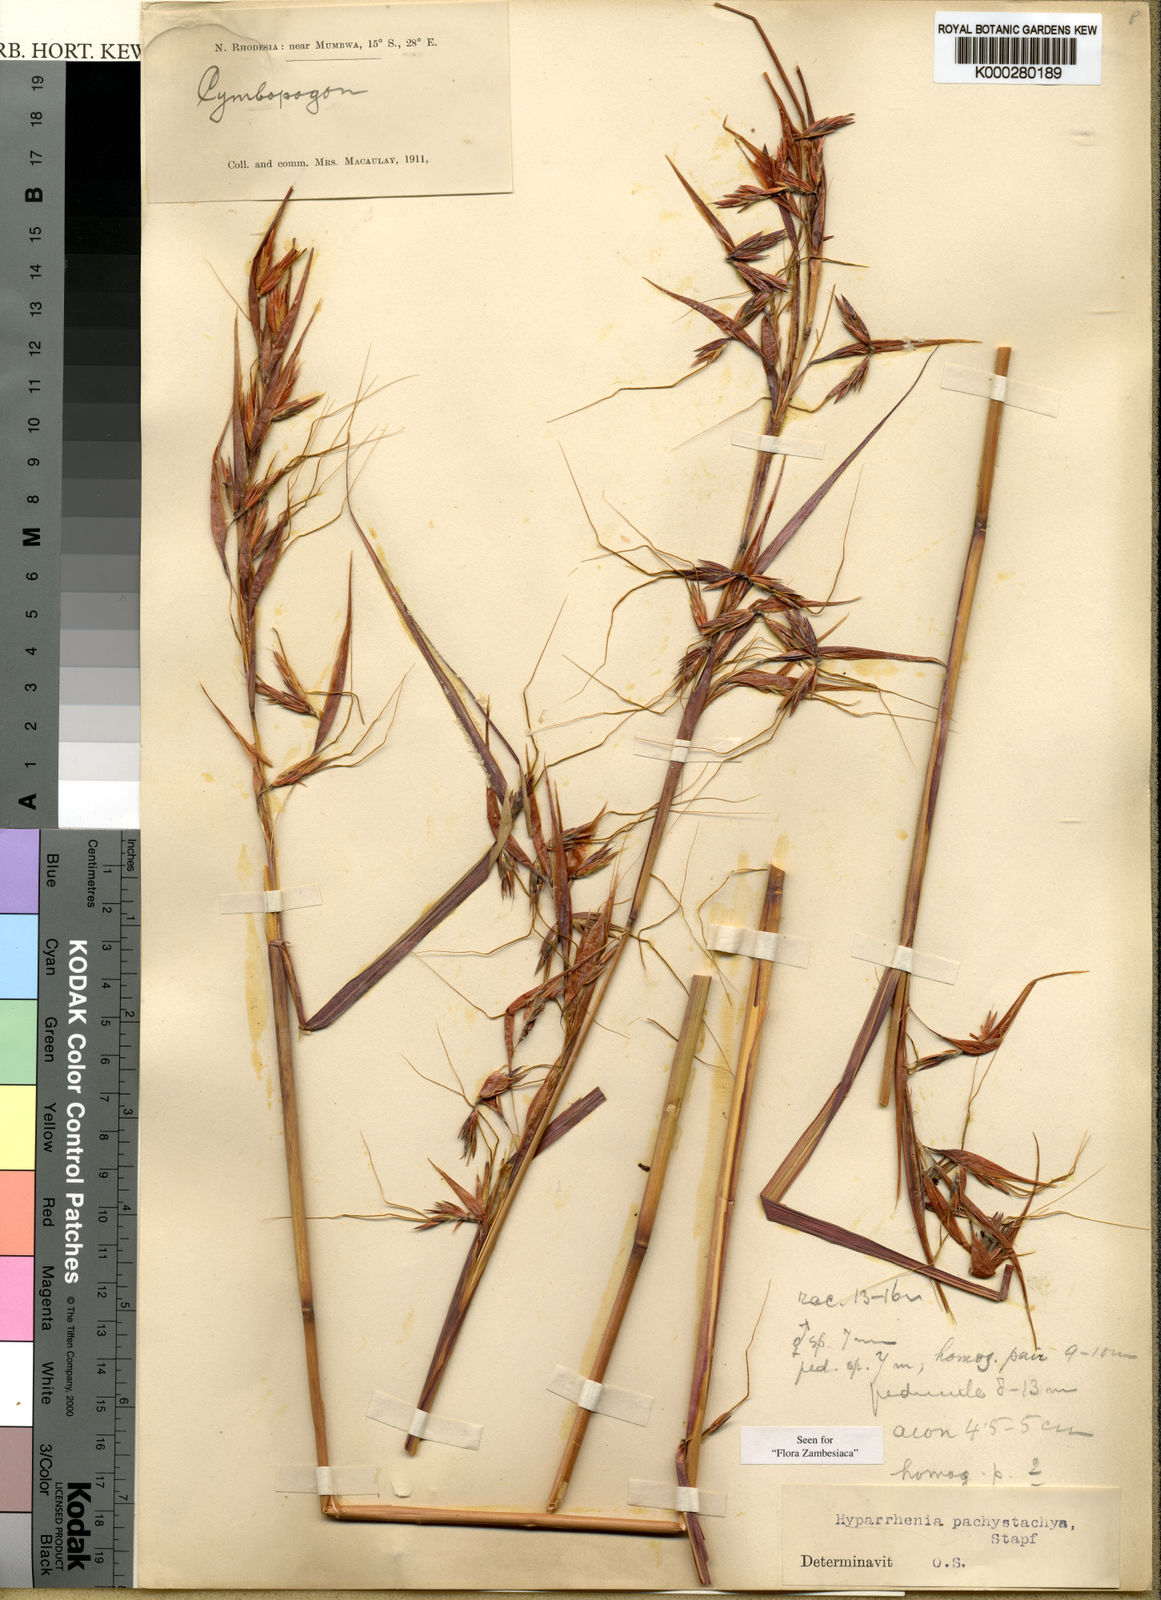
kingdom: Plantae
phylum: Tracheophyta
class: Liliopsida
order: Poales
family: Poaceae
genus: Hyparrhenia
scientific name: Hyparrhenia diplandra
